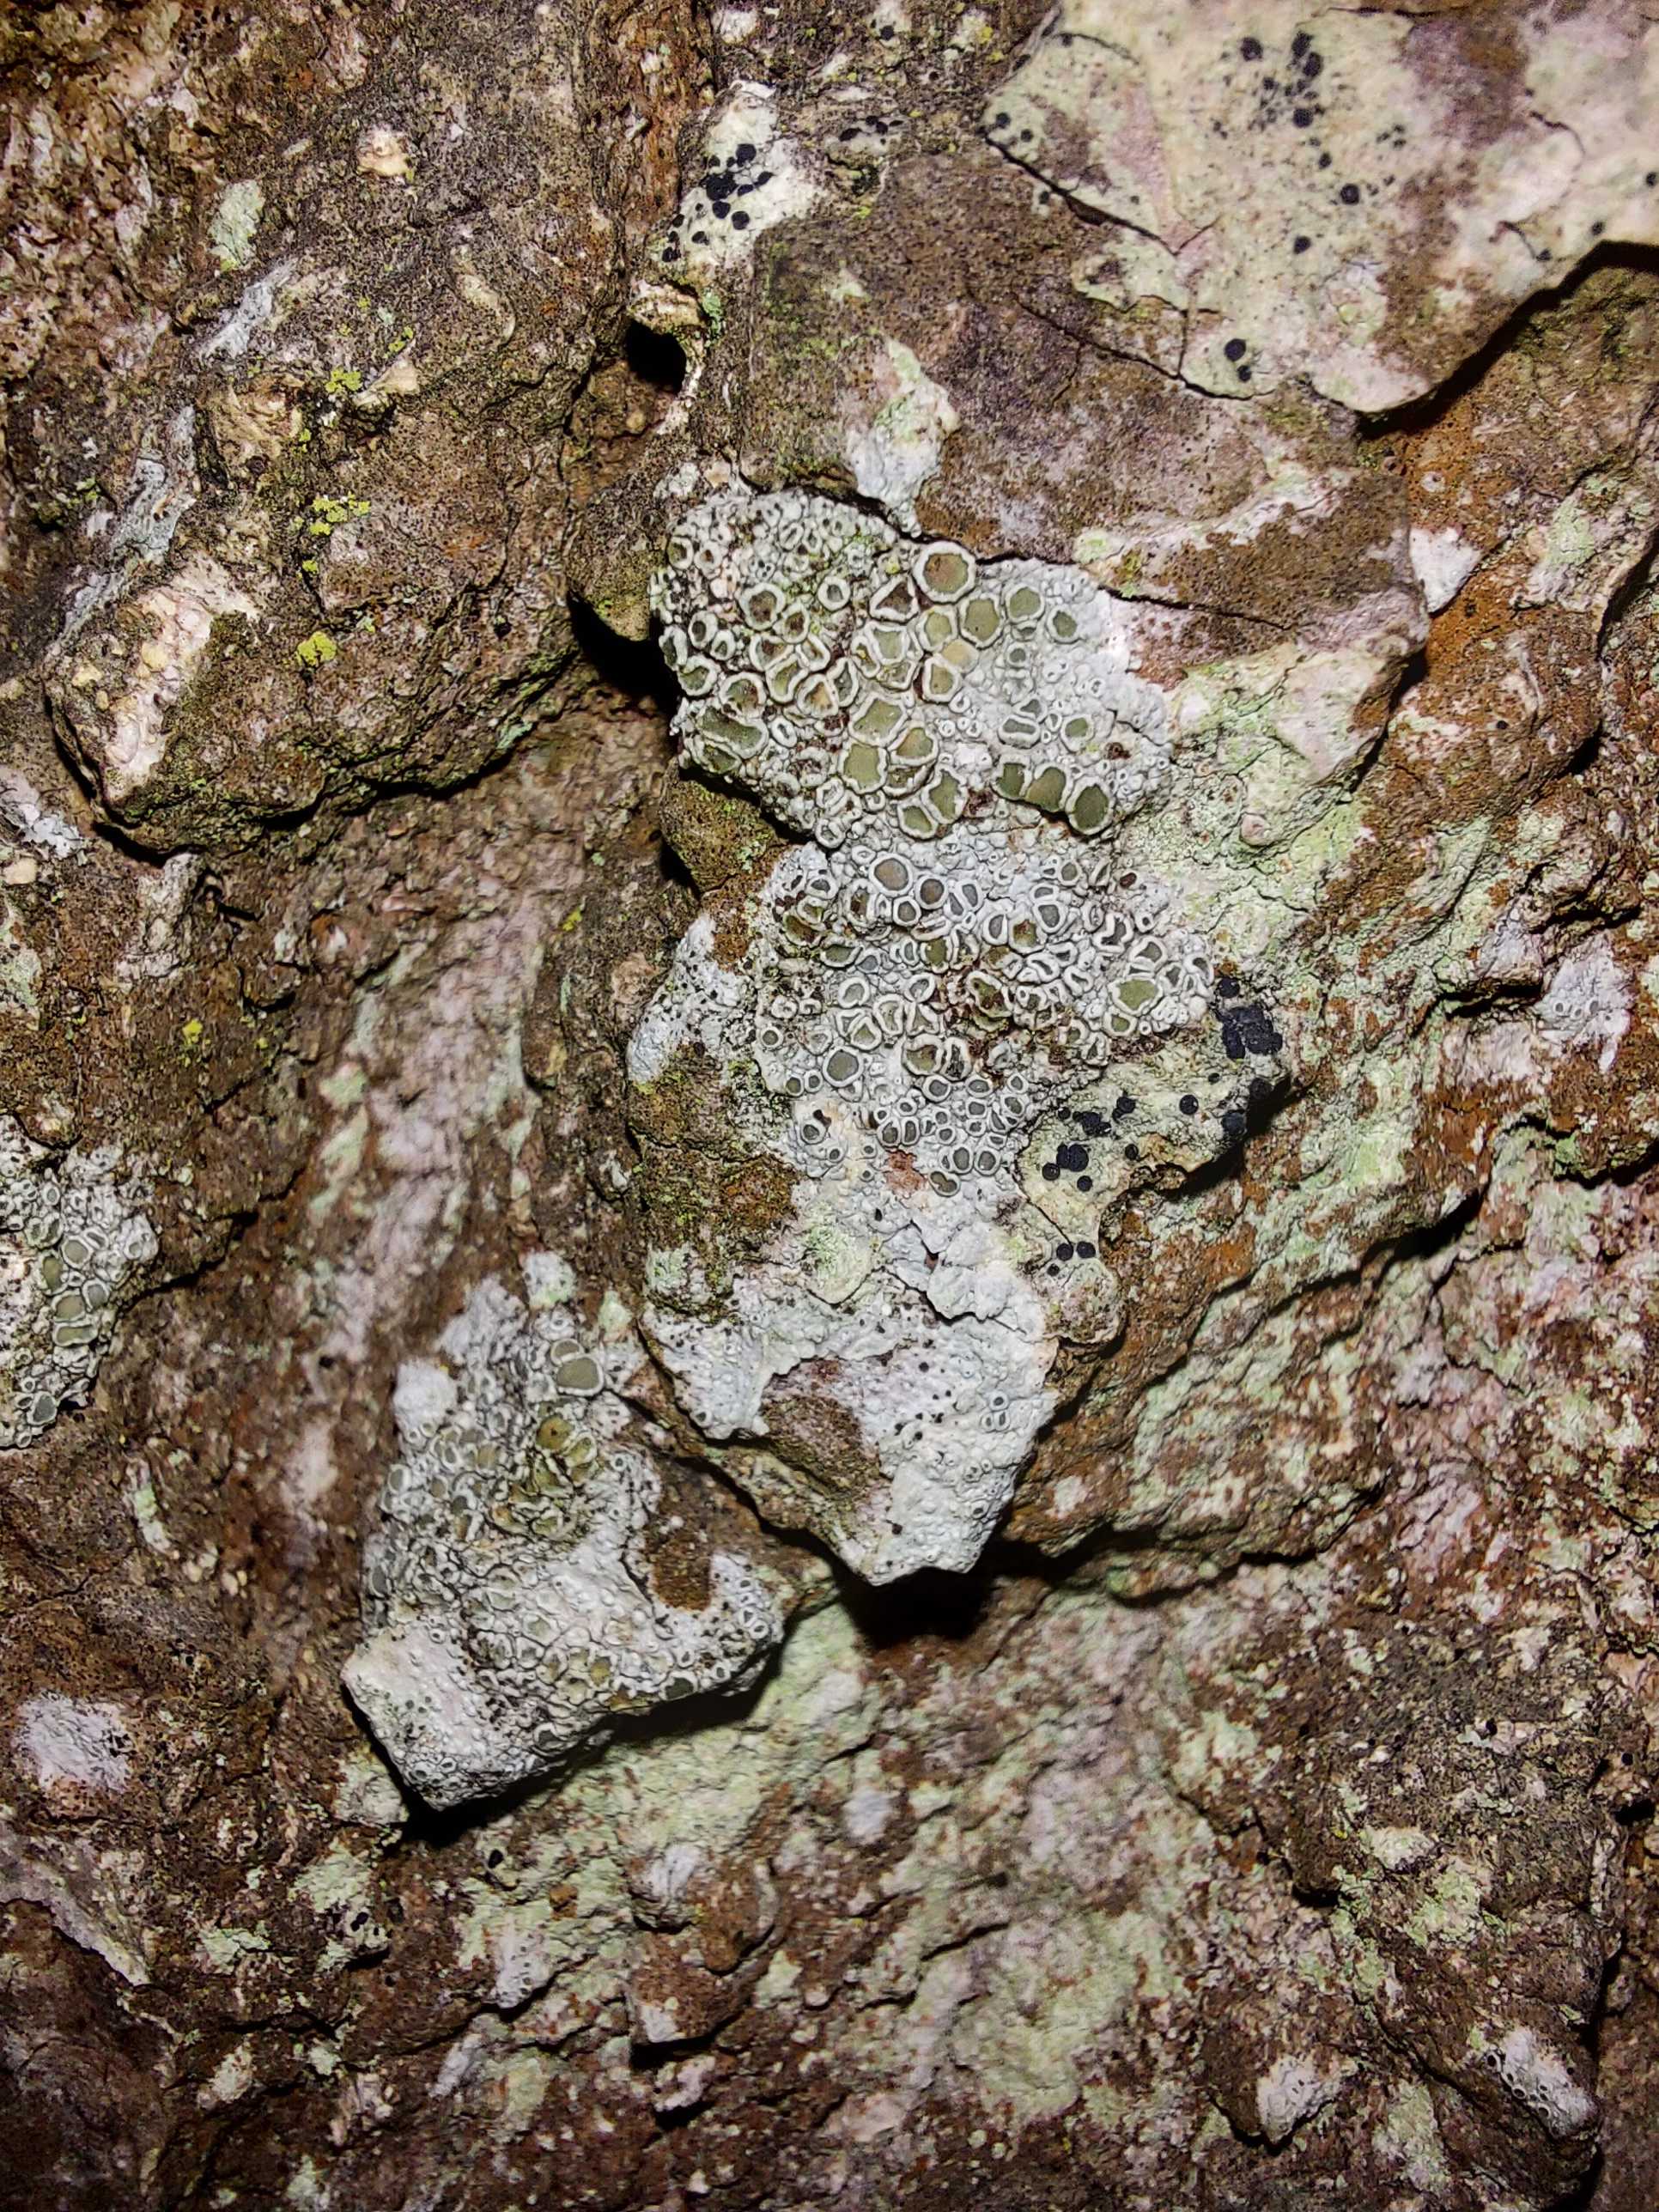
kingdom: Fungi
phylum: Ascomycota
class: Lecanoromycetes
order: Lecanorales
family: Lecanoraceae
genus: Lecanora
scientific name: Lecanora chlarotera
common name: brun kantskivelav
